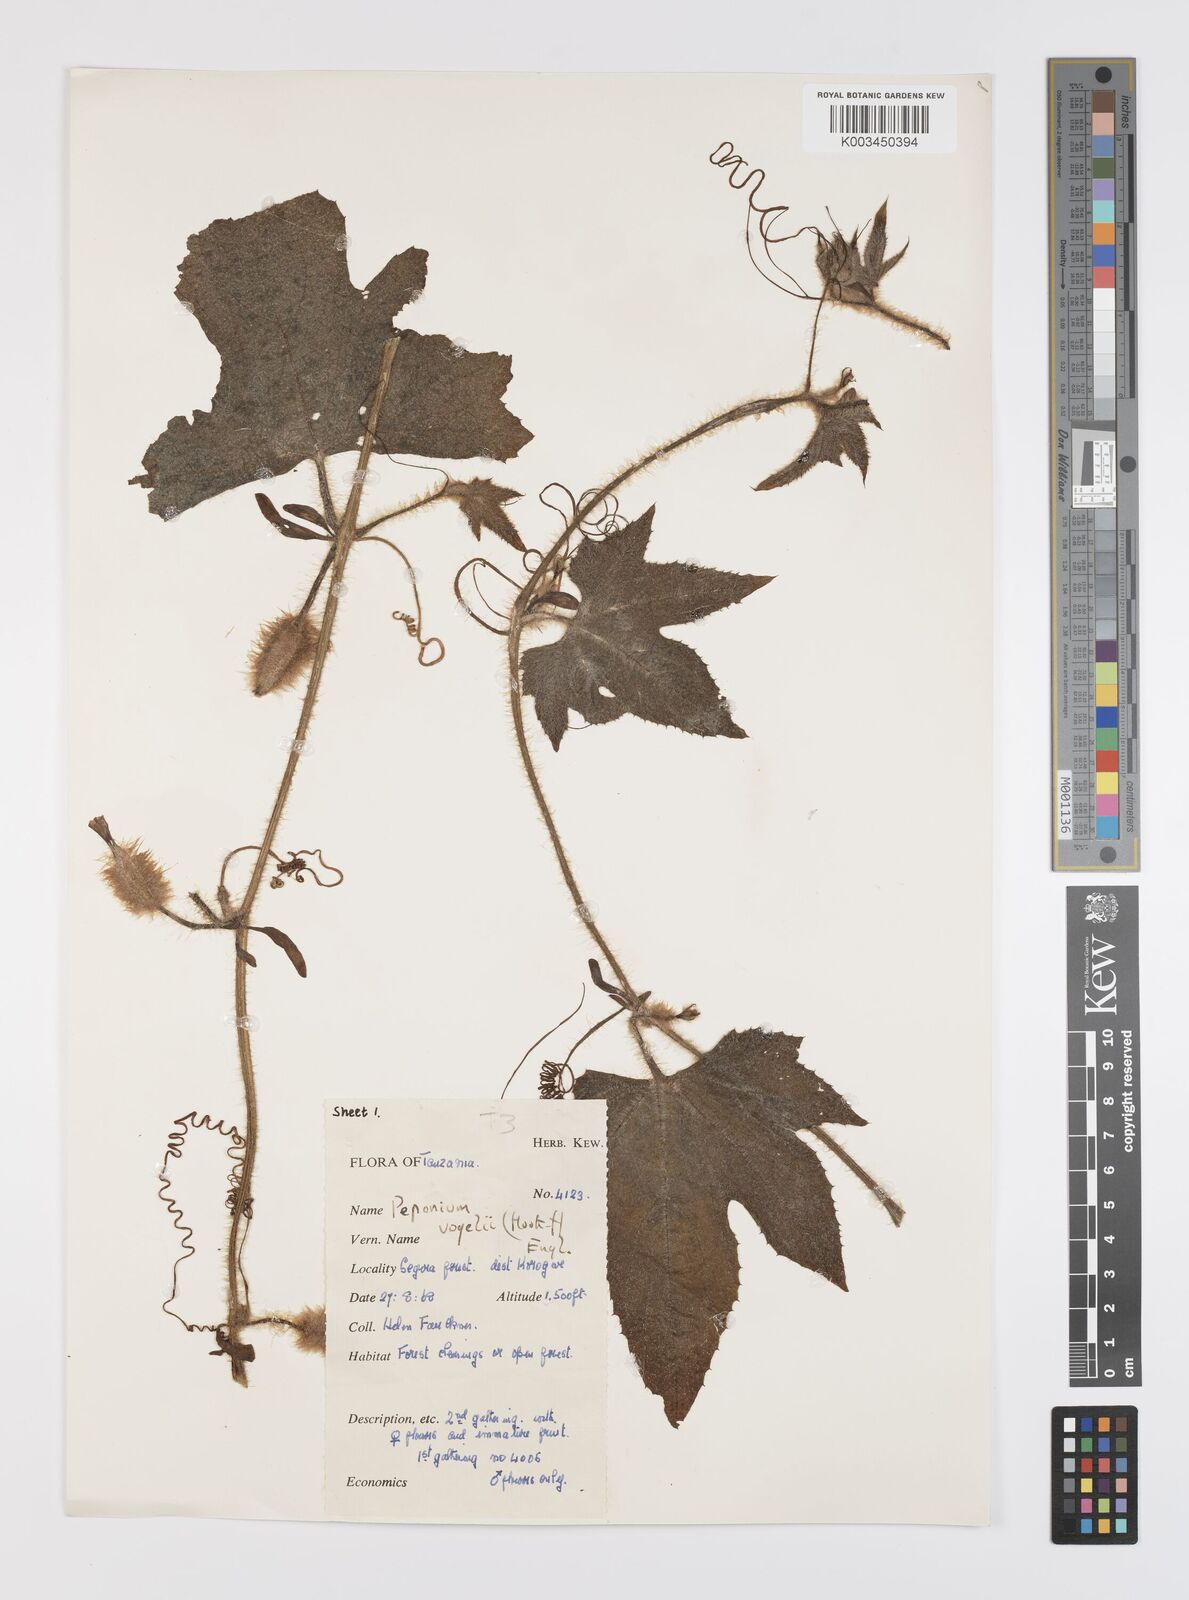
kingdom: Plantae
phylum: Tracheophyta
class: Magnoliopsida
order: Cucurbitales
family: Cucurbitaceae
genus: Peponium
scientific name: Peponium vogelii
